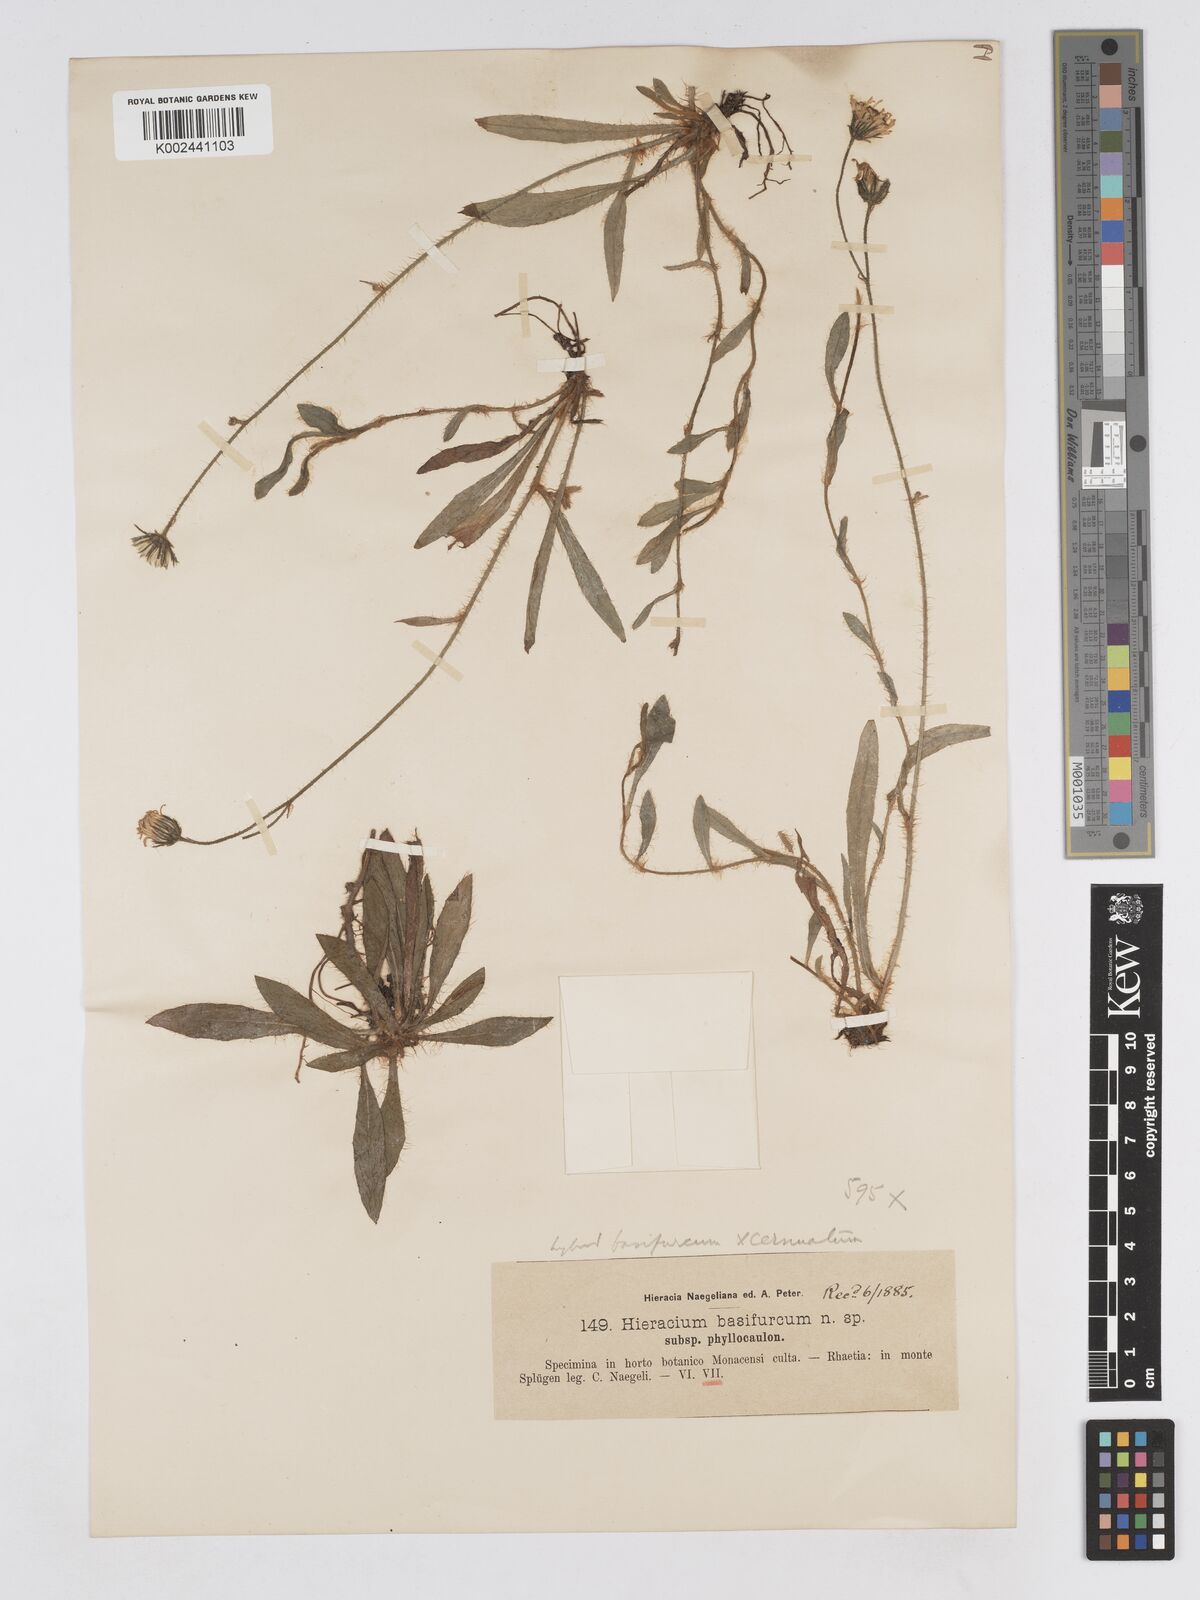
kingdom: Plantae
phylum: Tracheophyta
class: Magnoliopsida
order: Asterales
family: Asteraceae
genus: Pilosella
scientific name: Pilosella basifurca
